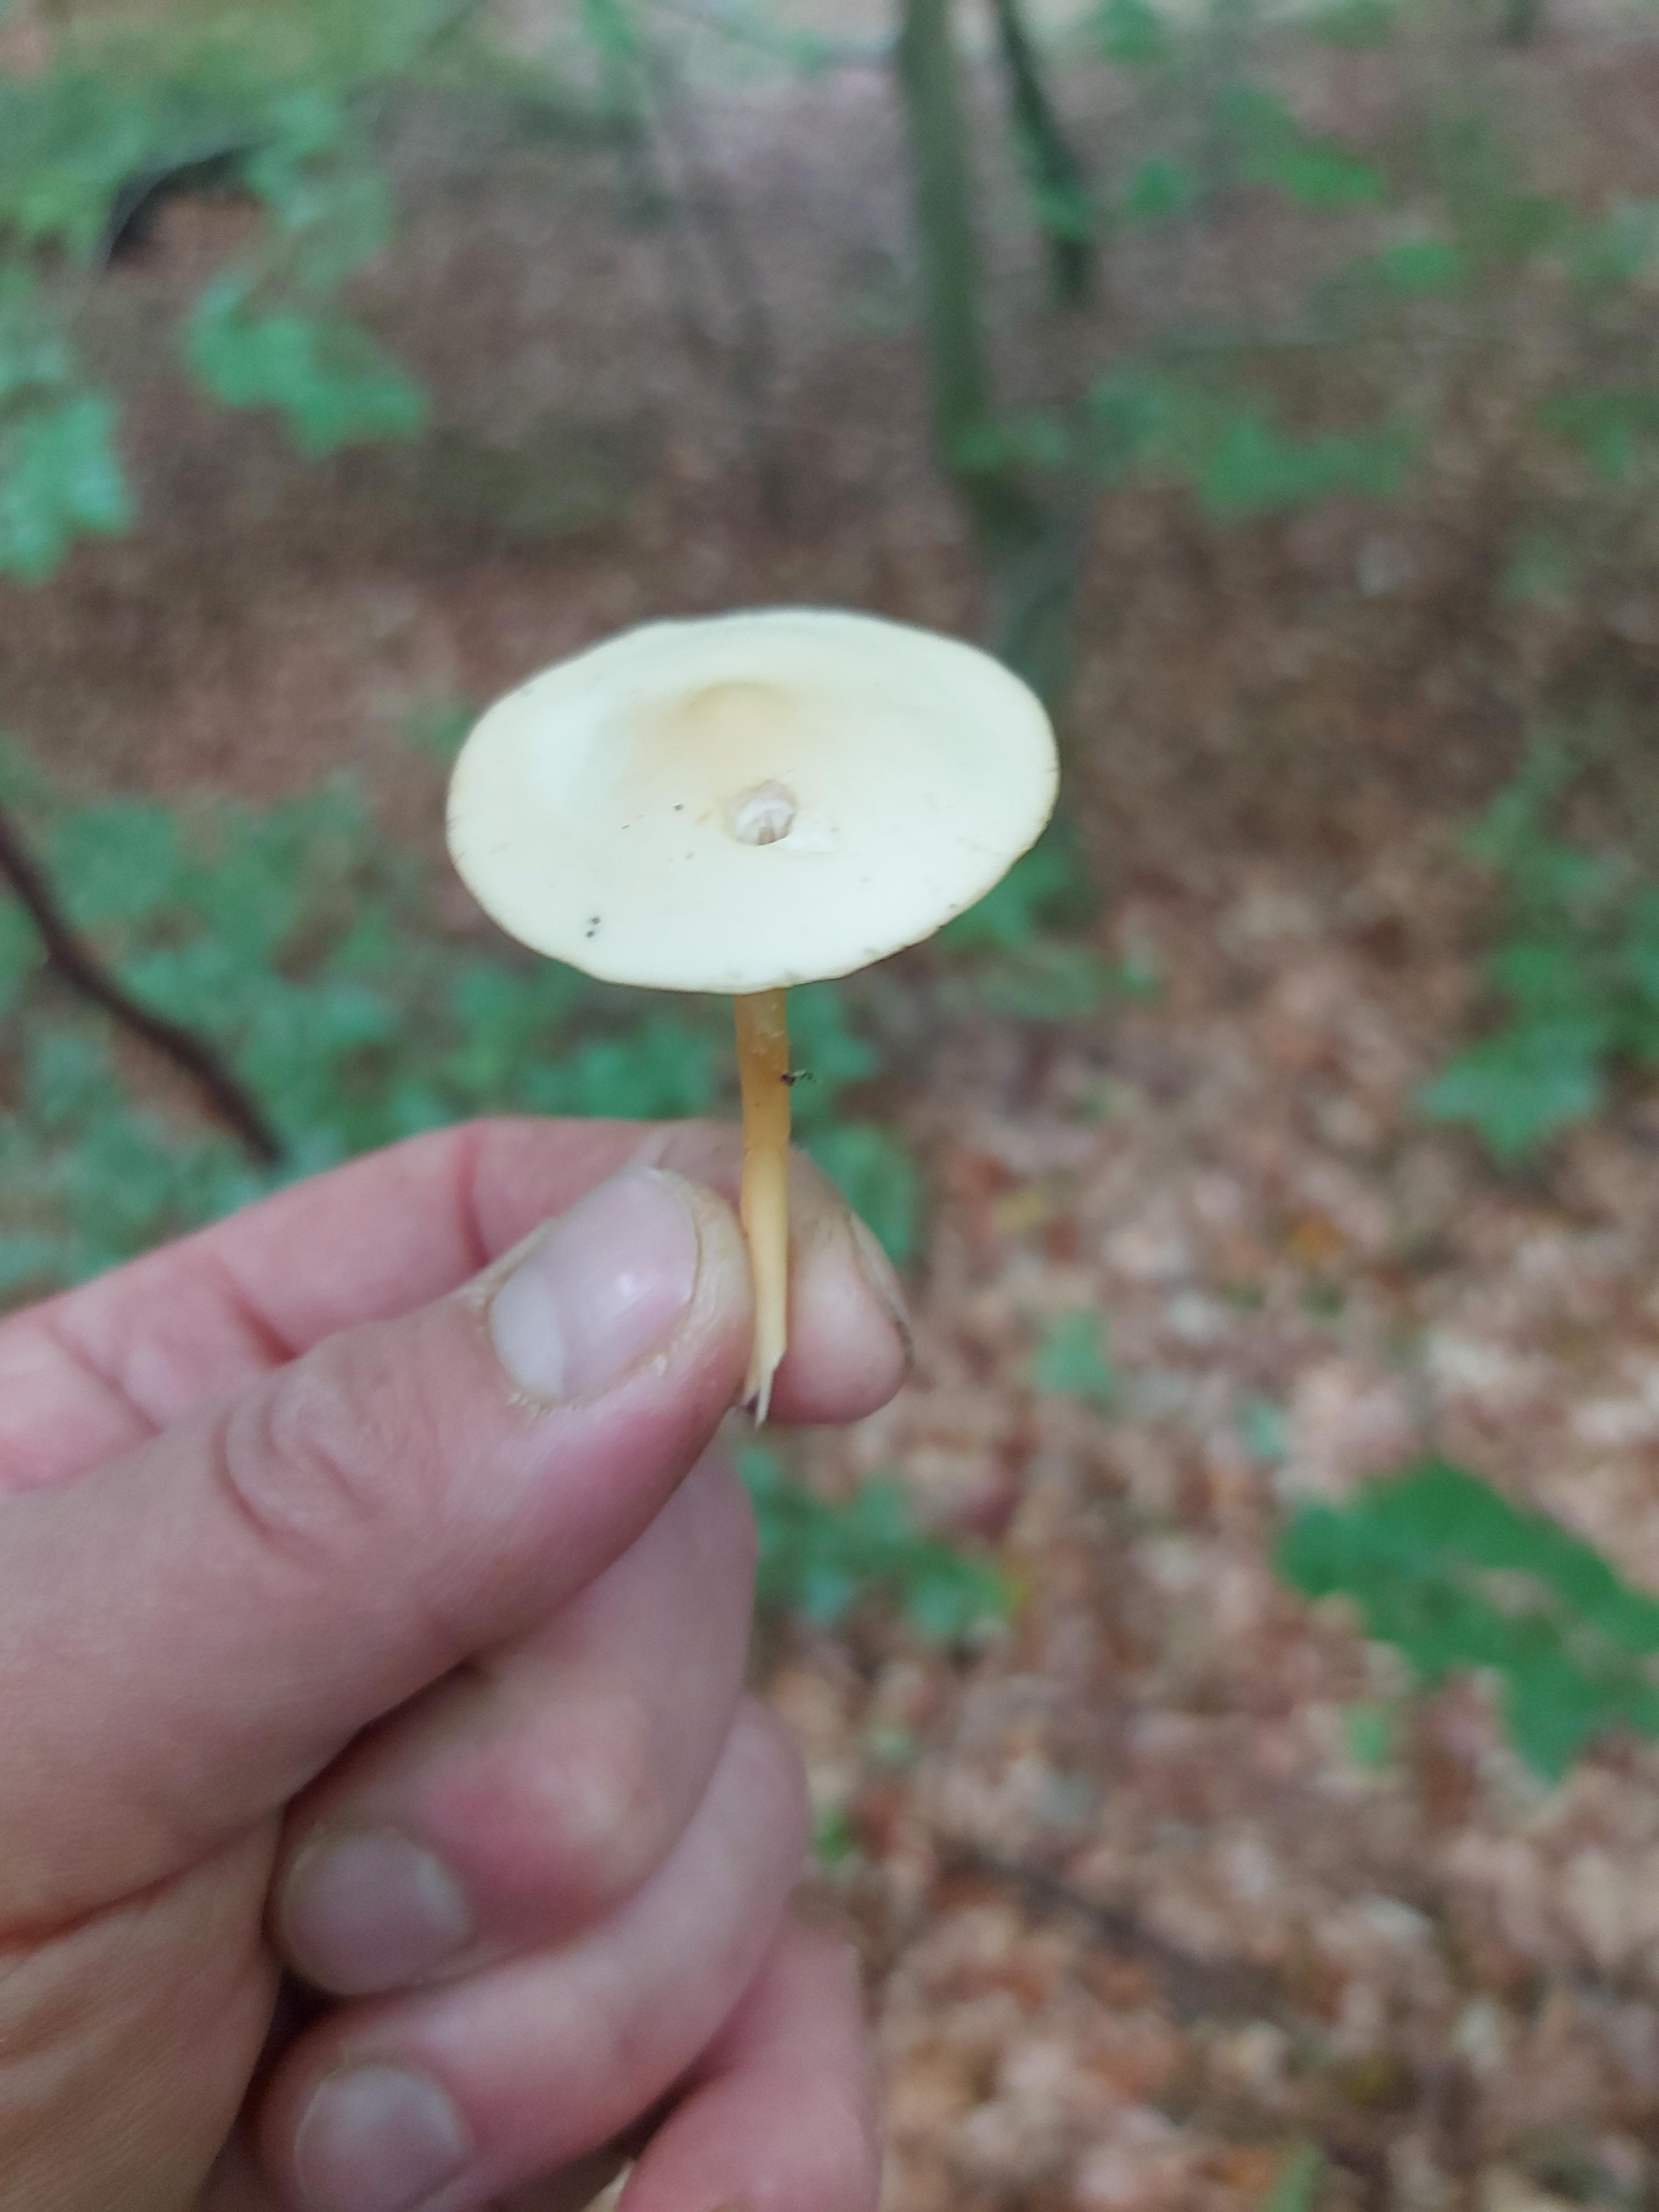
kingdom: Fungi
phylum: Basidiomycota
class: Agaricomycetes
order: Agaricales
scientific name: Agaricales
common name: champignonordenen
